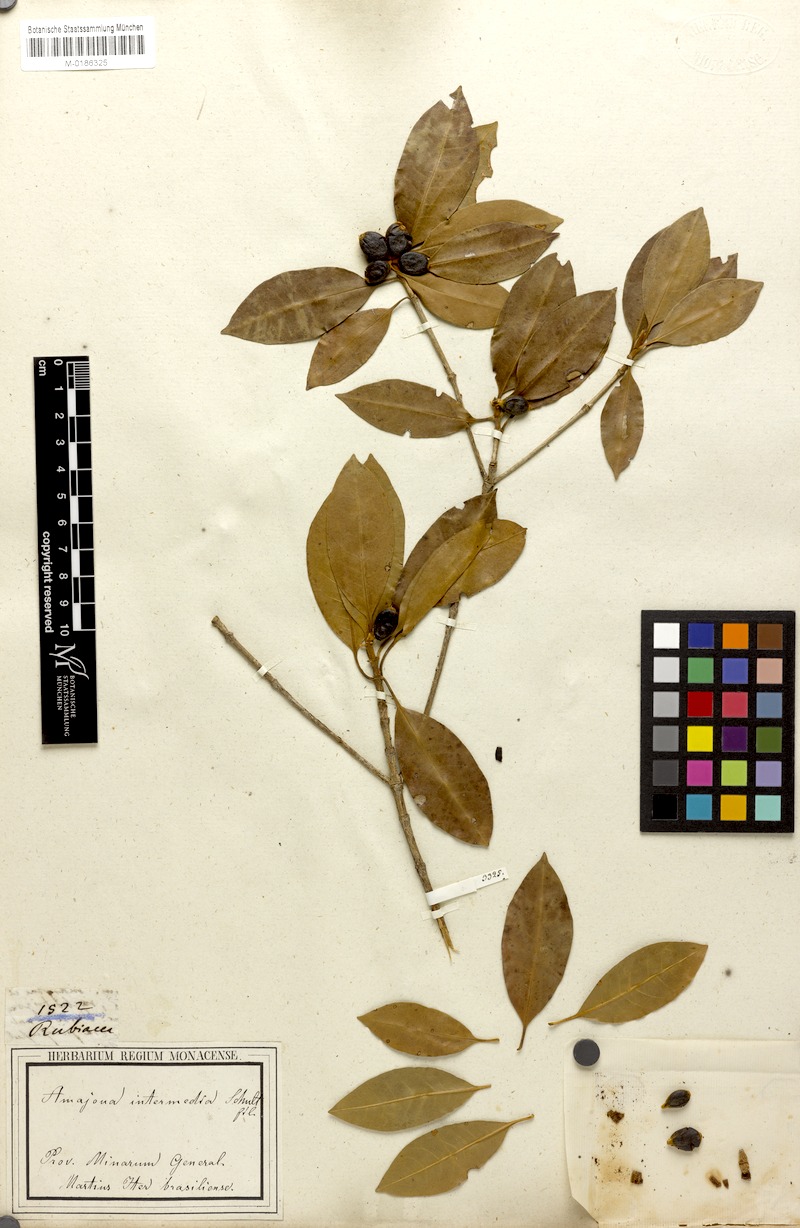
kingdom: Plantae
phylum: Tracheophyta
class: Magnoliopsida
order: Gentianales
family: Rubiaceae
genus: Amaioua
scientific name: Amaioua intermedia
